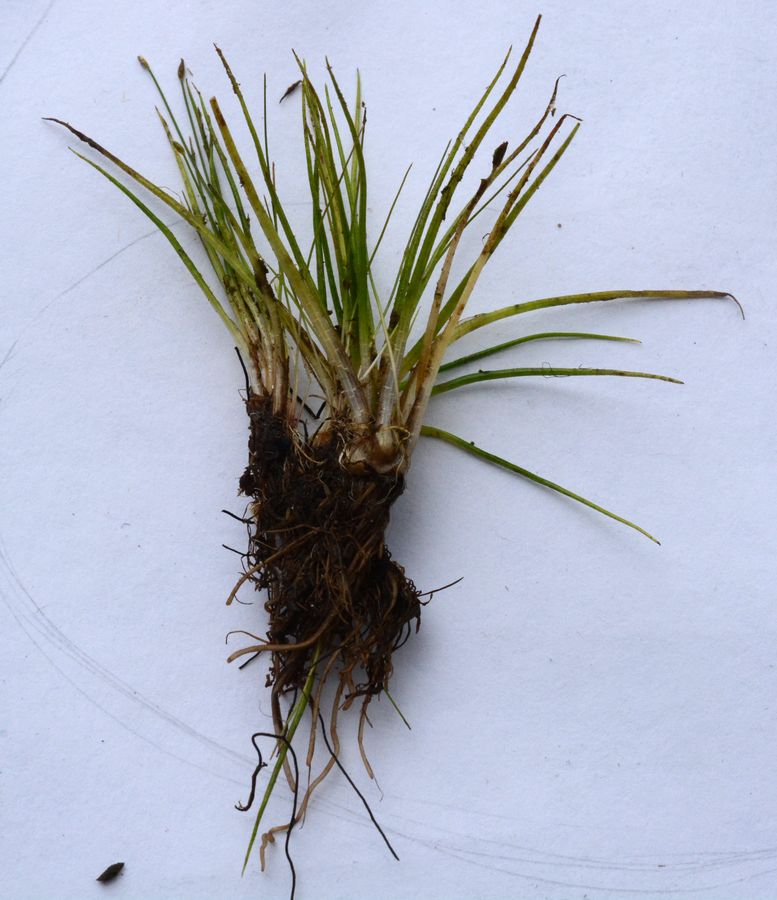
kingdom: Plantae
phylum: Tracheophyta
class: Lycopodiopsida
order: Isoetales
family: Isoetaceae
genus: Isoetes
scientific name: Isoetes echinospora
